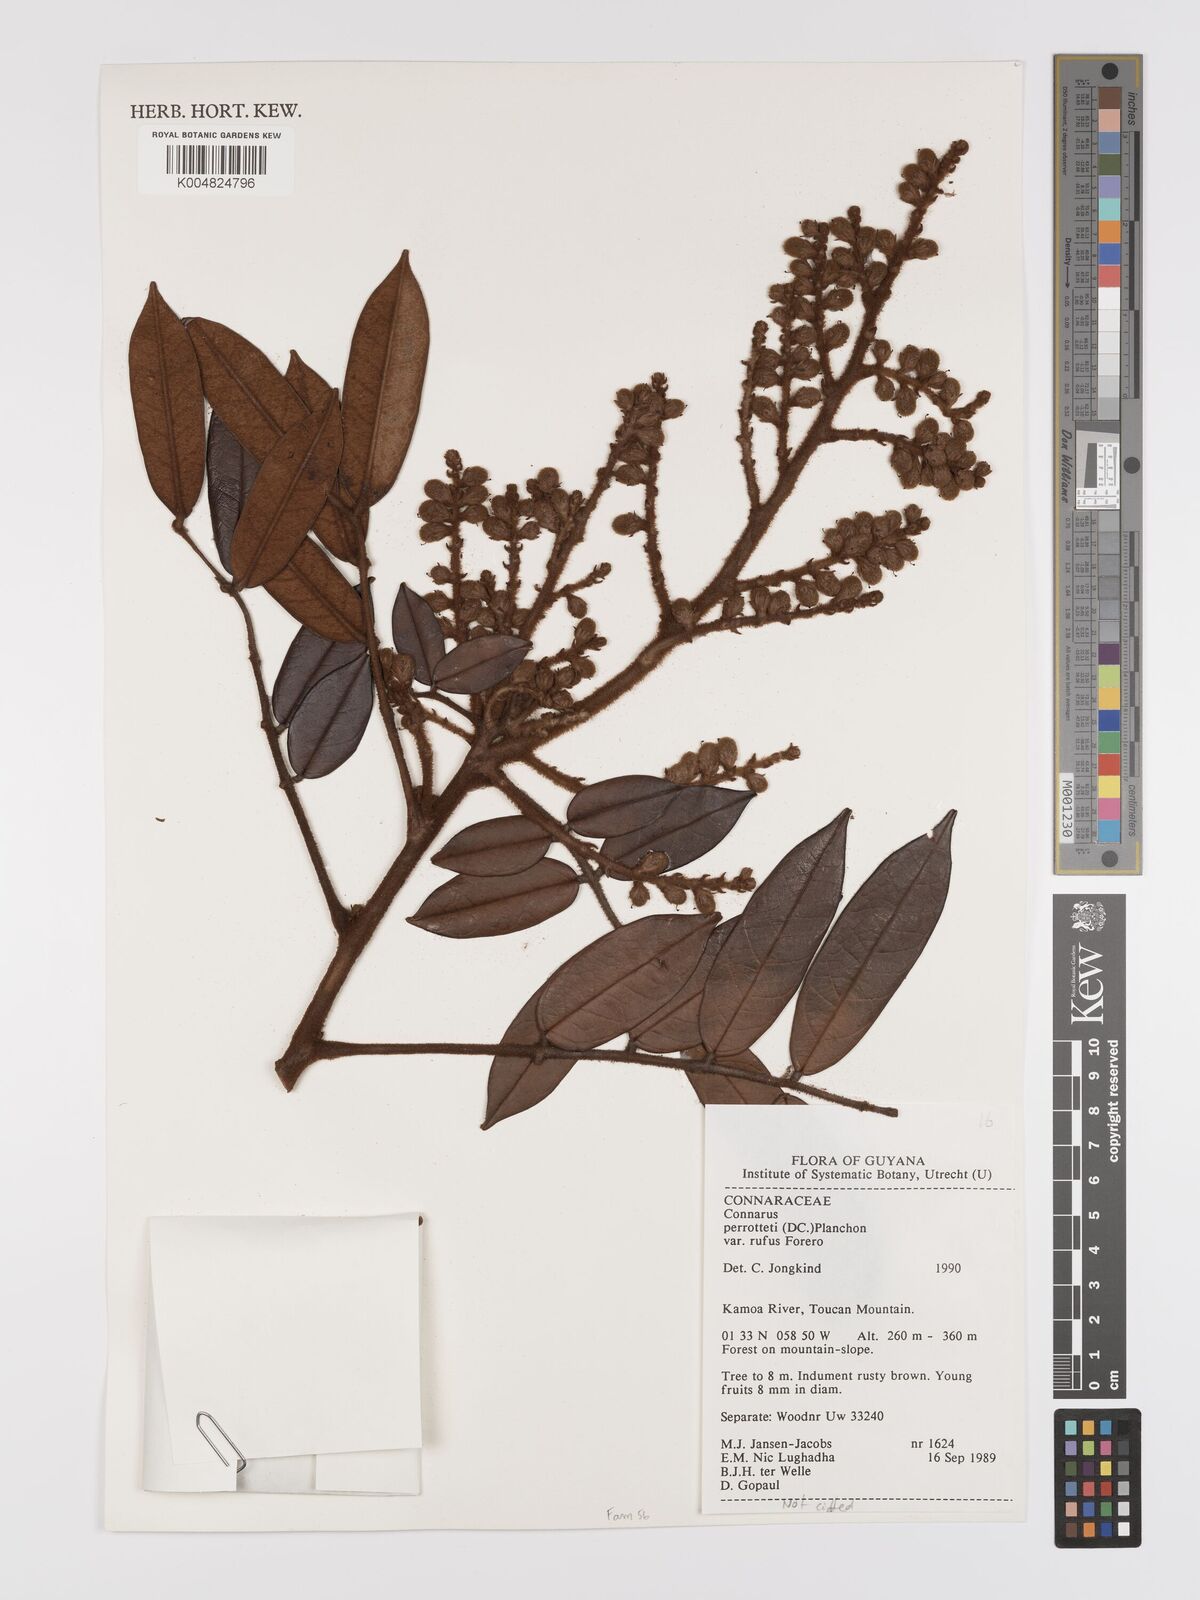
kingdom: Plantae
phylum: Tracheophyta
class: Magnoliopsida
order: Oxalidales
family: Connaraceae
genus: Connarus
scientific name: Connarus perrottetii
